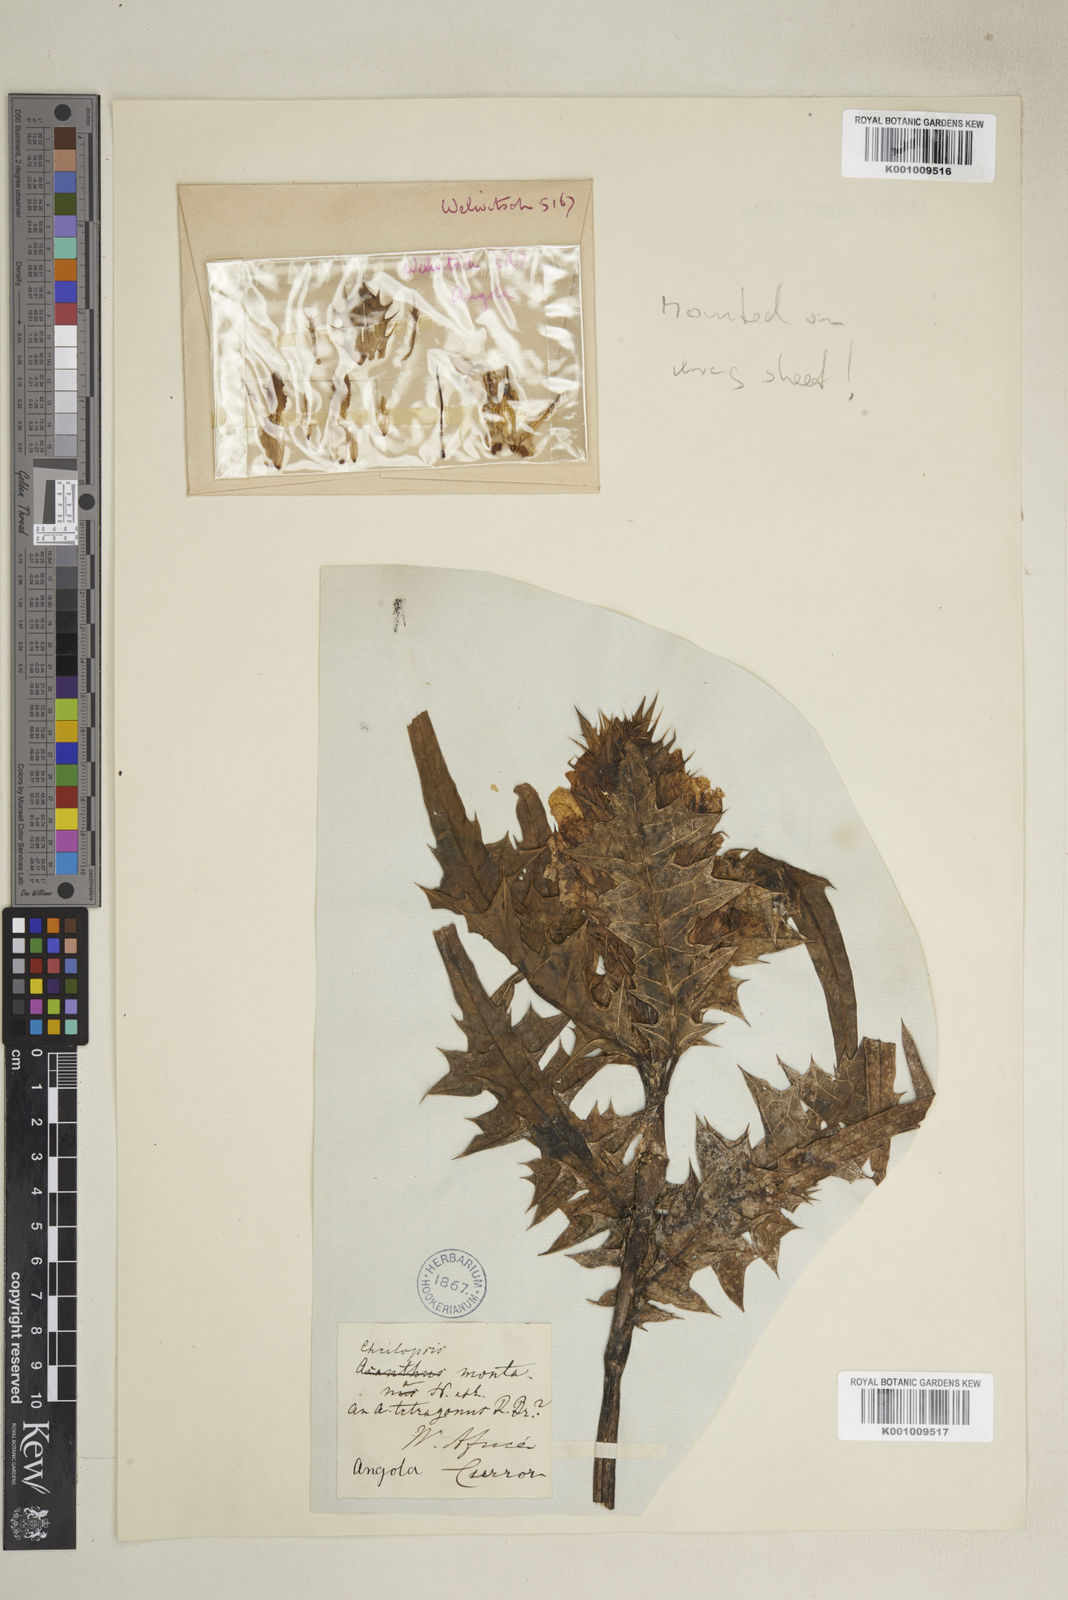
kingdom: Plantae
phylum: Tracheophyta
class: Magnoliopsida
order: Lamiales
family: Acanthaceae
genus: Acanthus
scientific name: Acanthus montanus
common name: Mountain thistle
